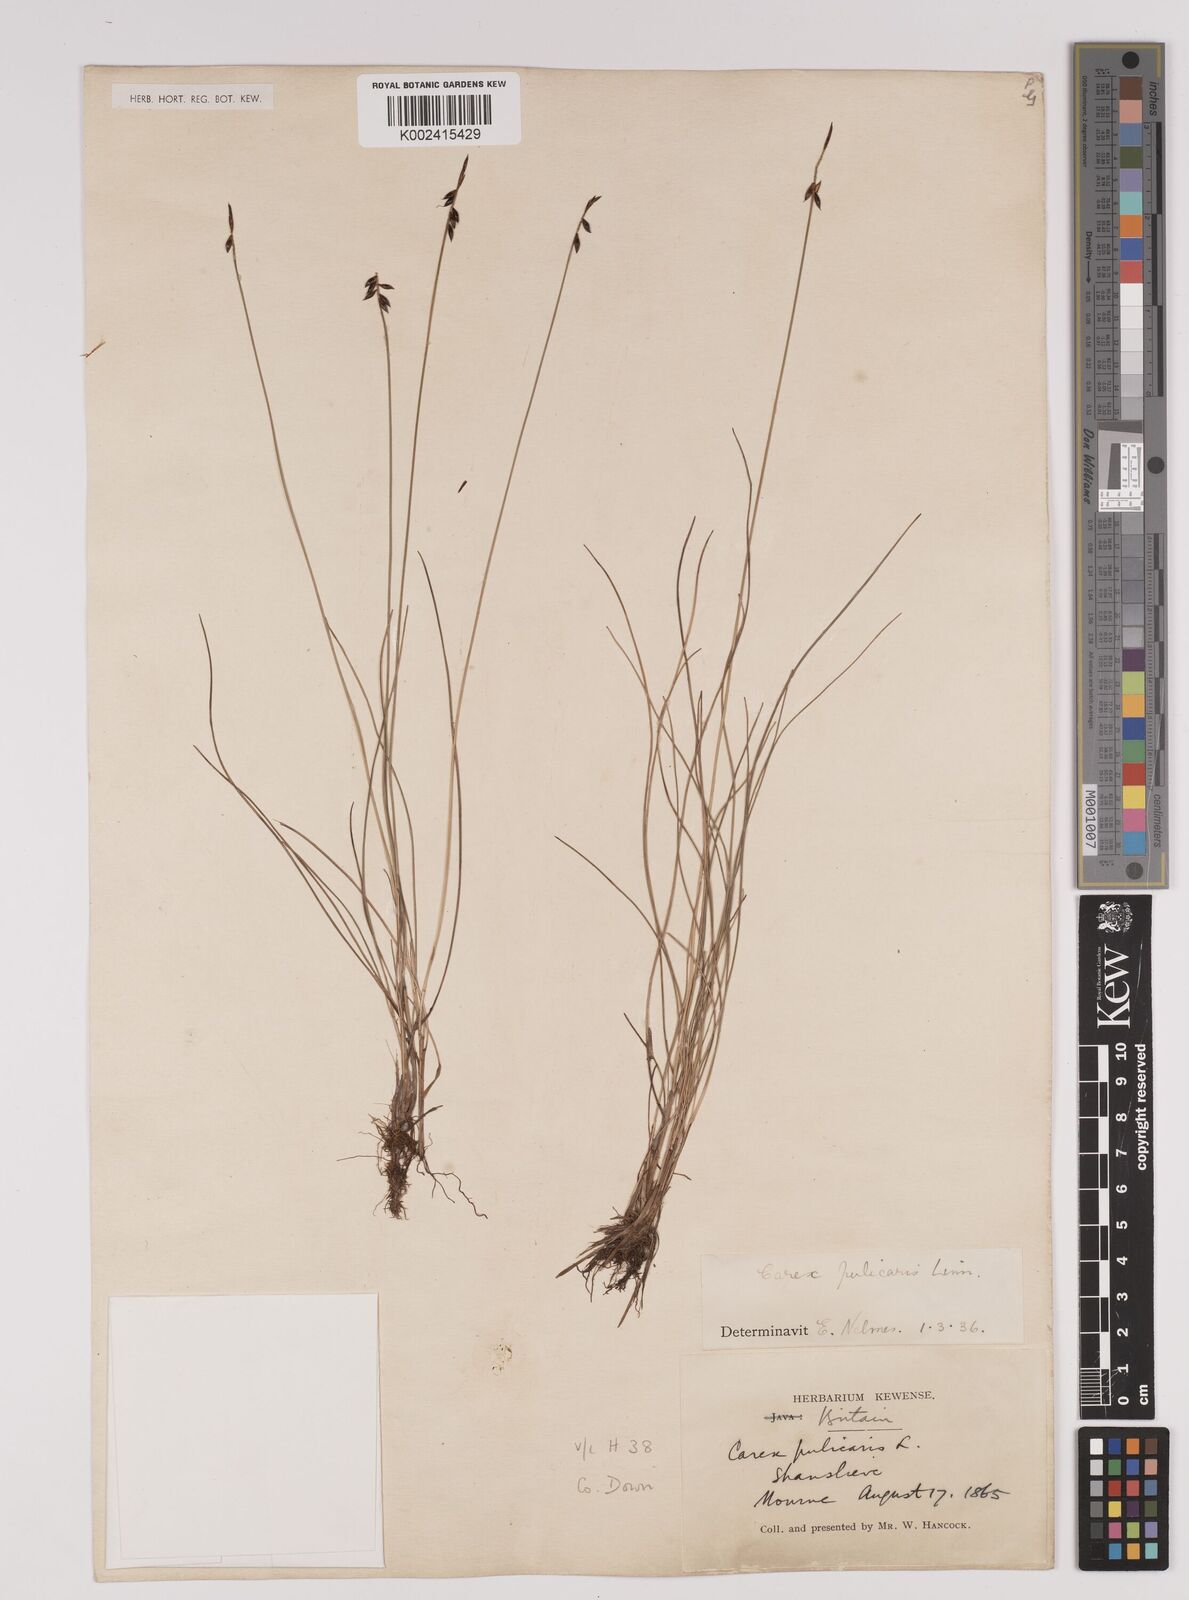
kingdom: Plantae
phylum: Tracheophyta
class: Liliopsida
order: Poales
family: Cyperaceae
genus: Carex
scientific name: Carex pulicaris
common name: Flea sedge
